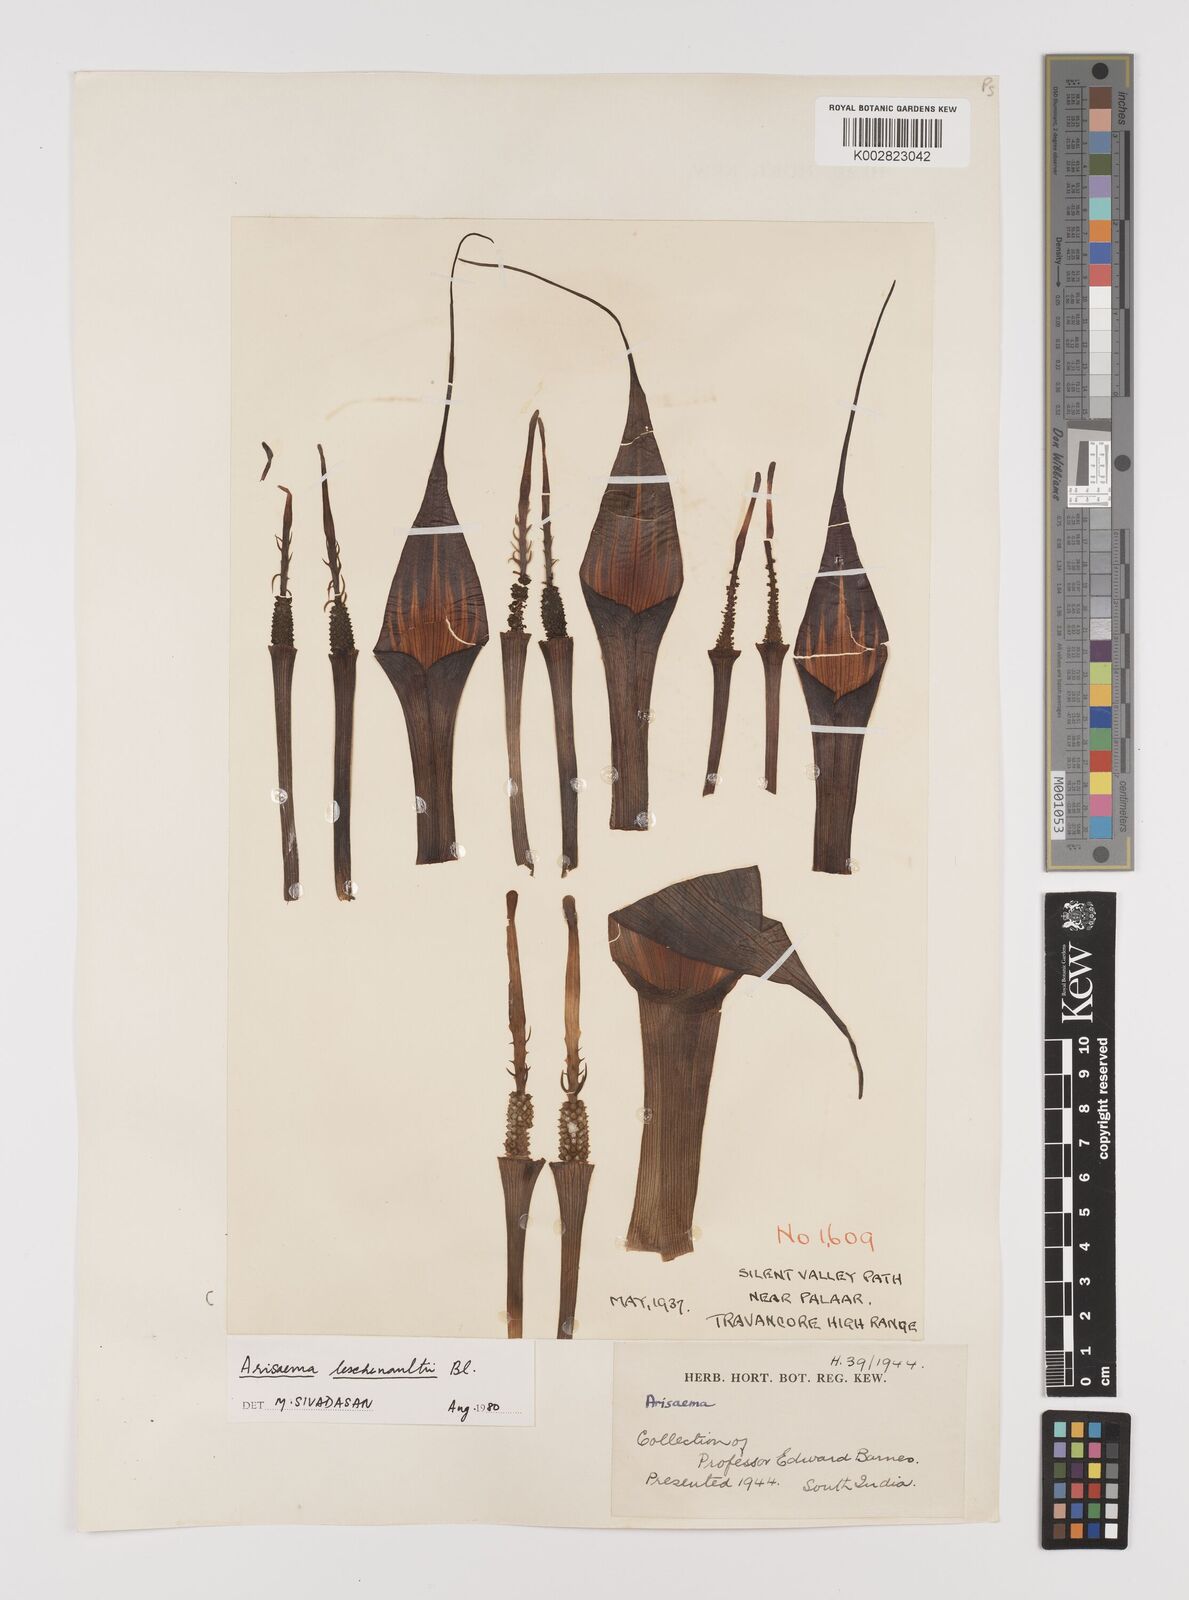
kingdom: Plantae
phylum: Tracheophyta
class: Liliopsida
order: Alismatales
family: Araceae
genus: Arisaema
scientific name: Arisaema leschenaultii
